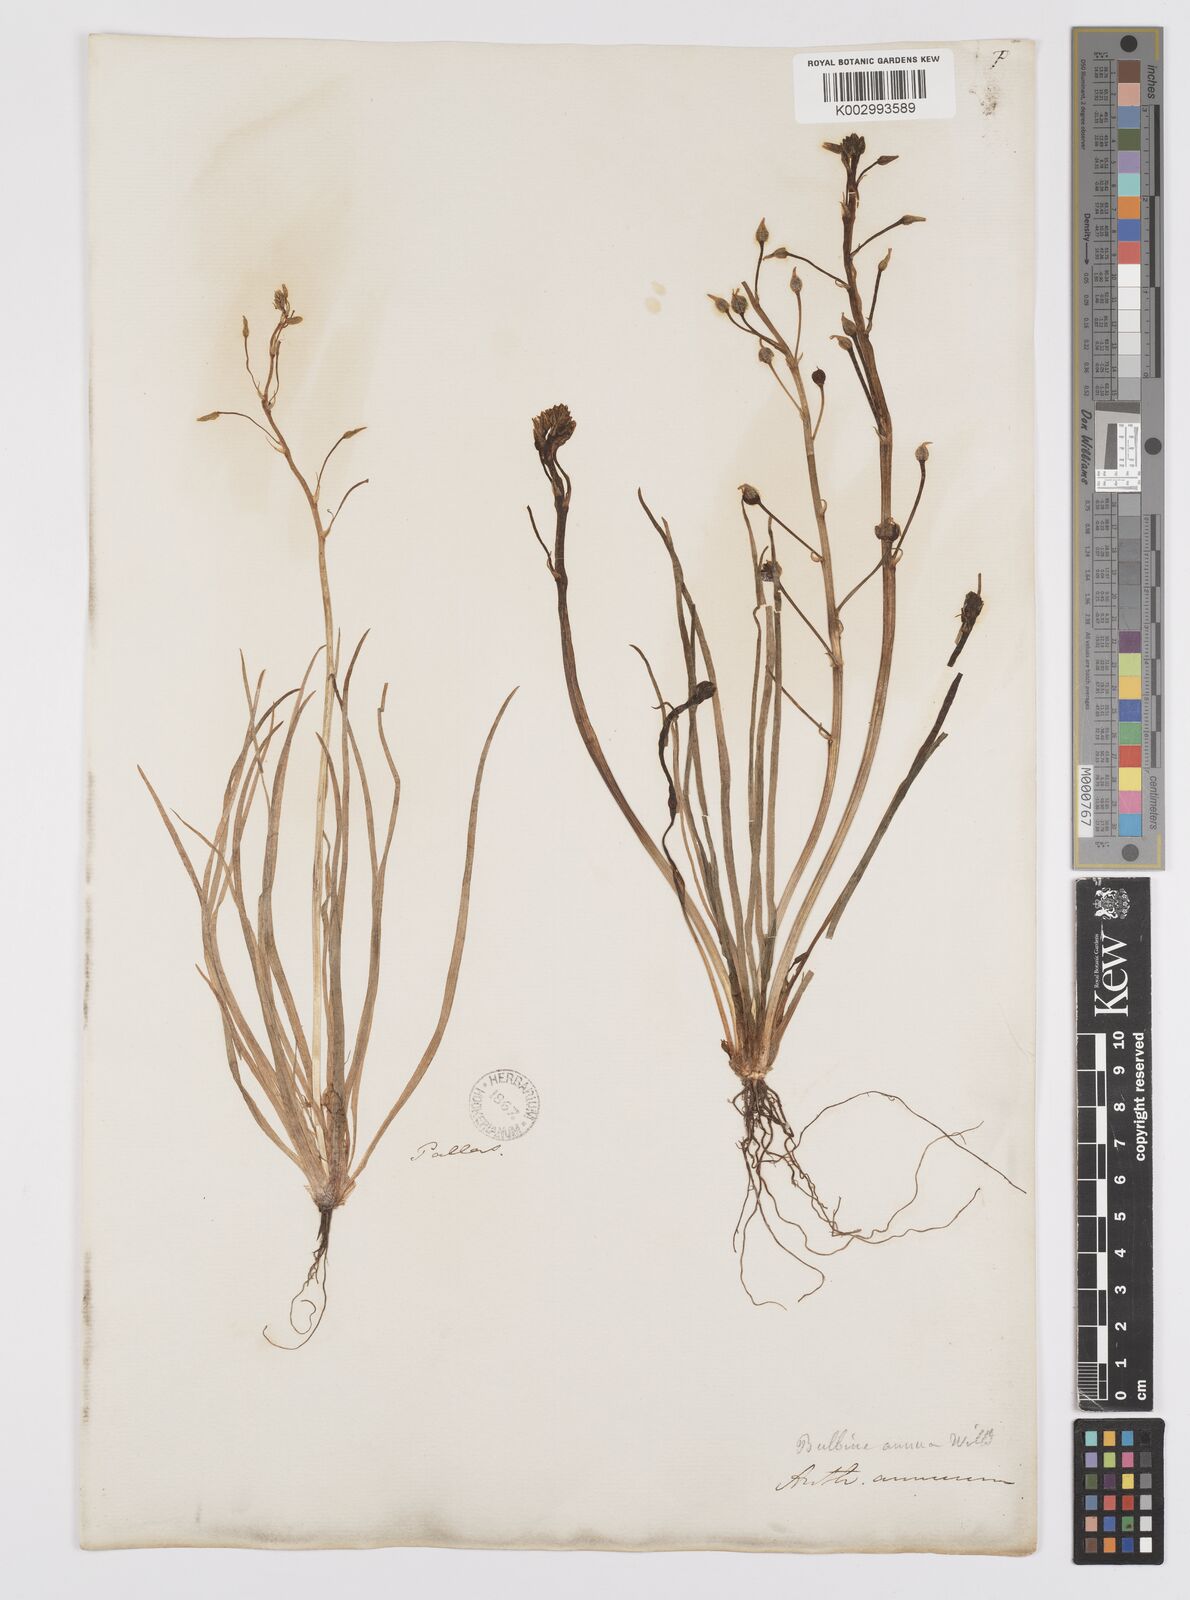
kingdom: Plantae
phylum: Tracheophyta
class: Liliopsida
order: Asparagales
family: Asphodelaceae
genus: Bulbine
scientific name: Bulbine annua
